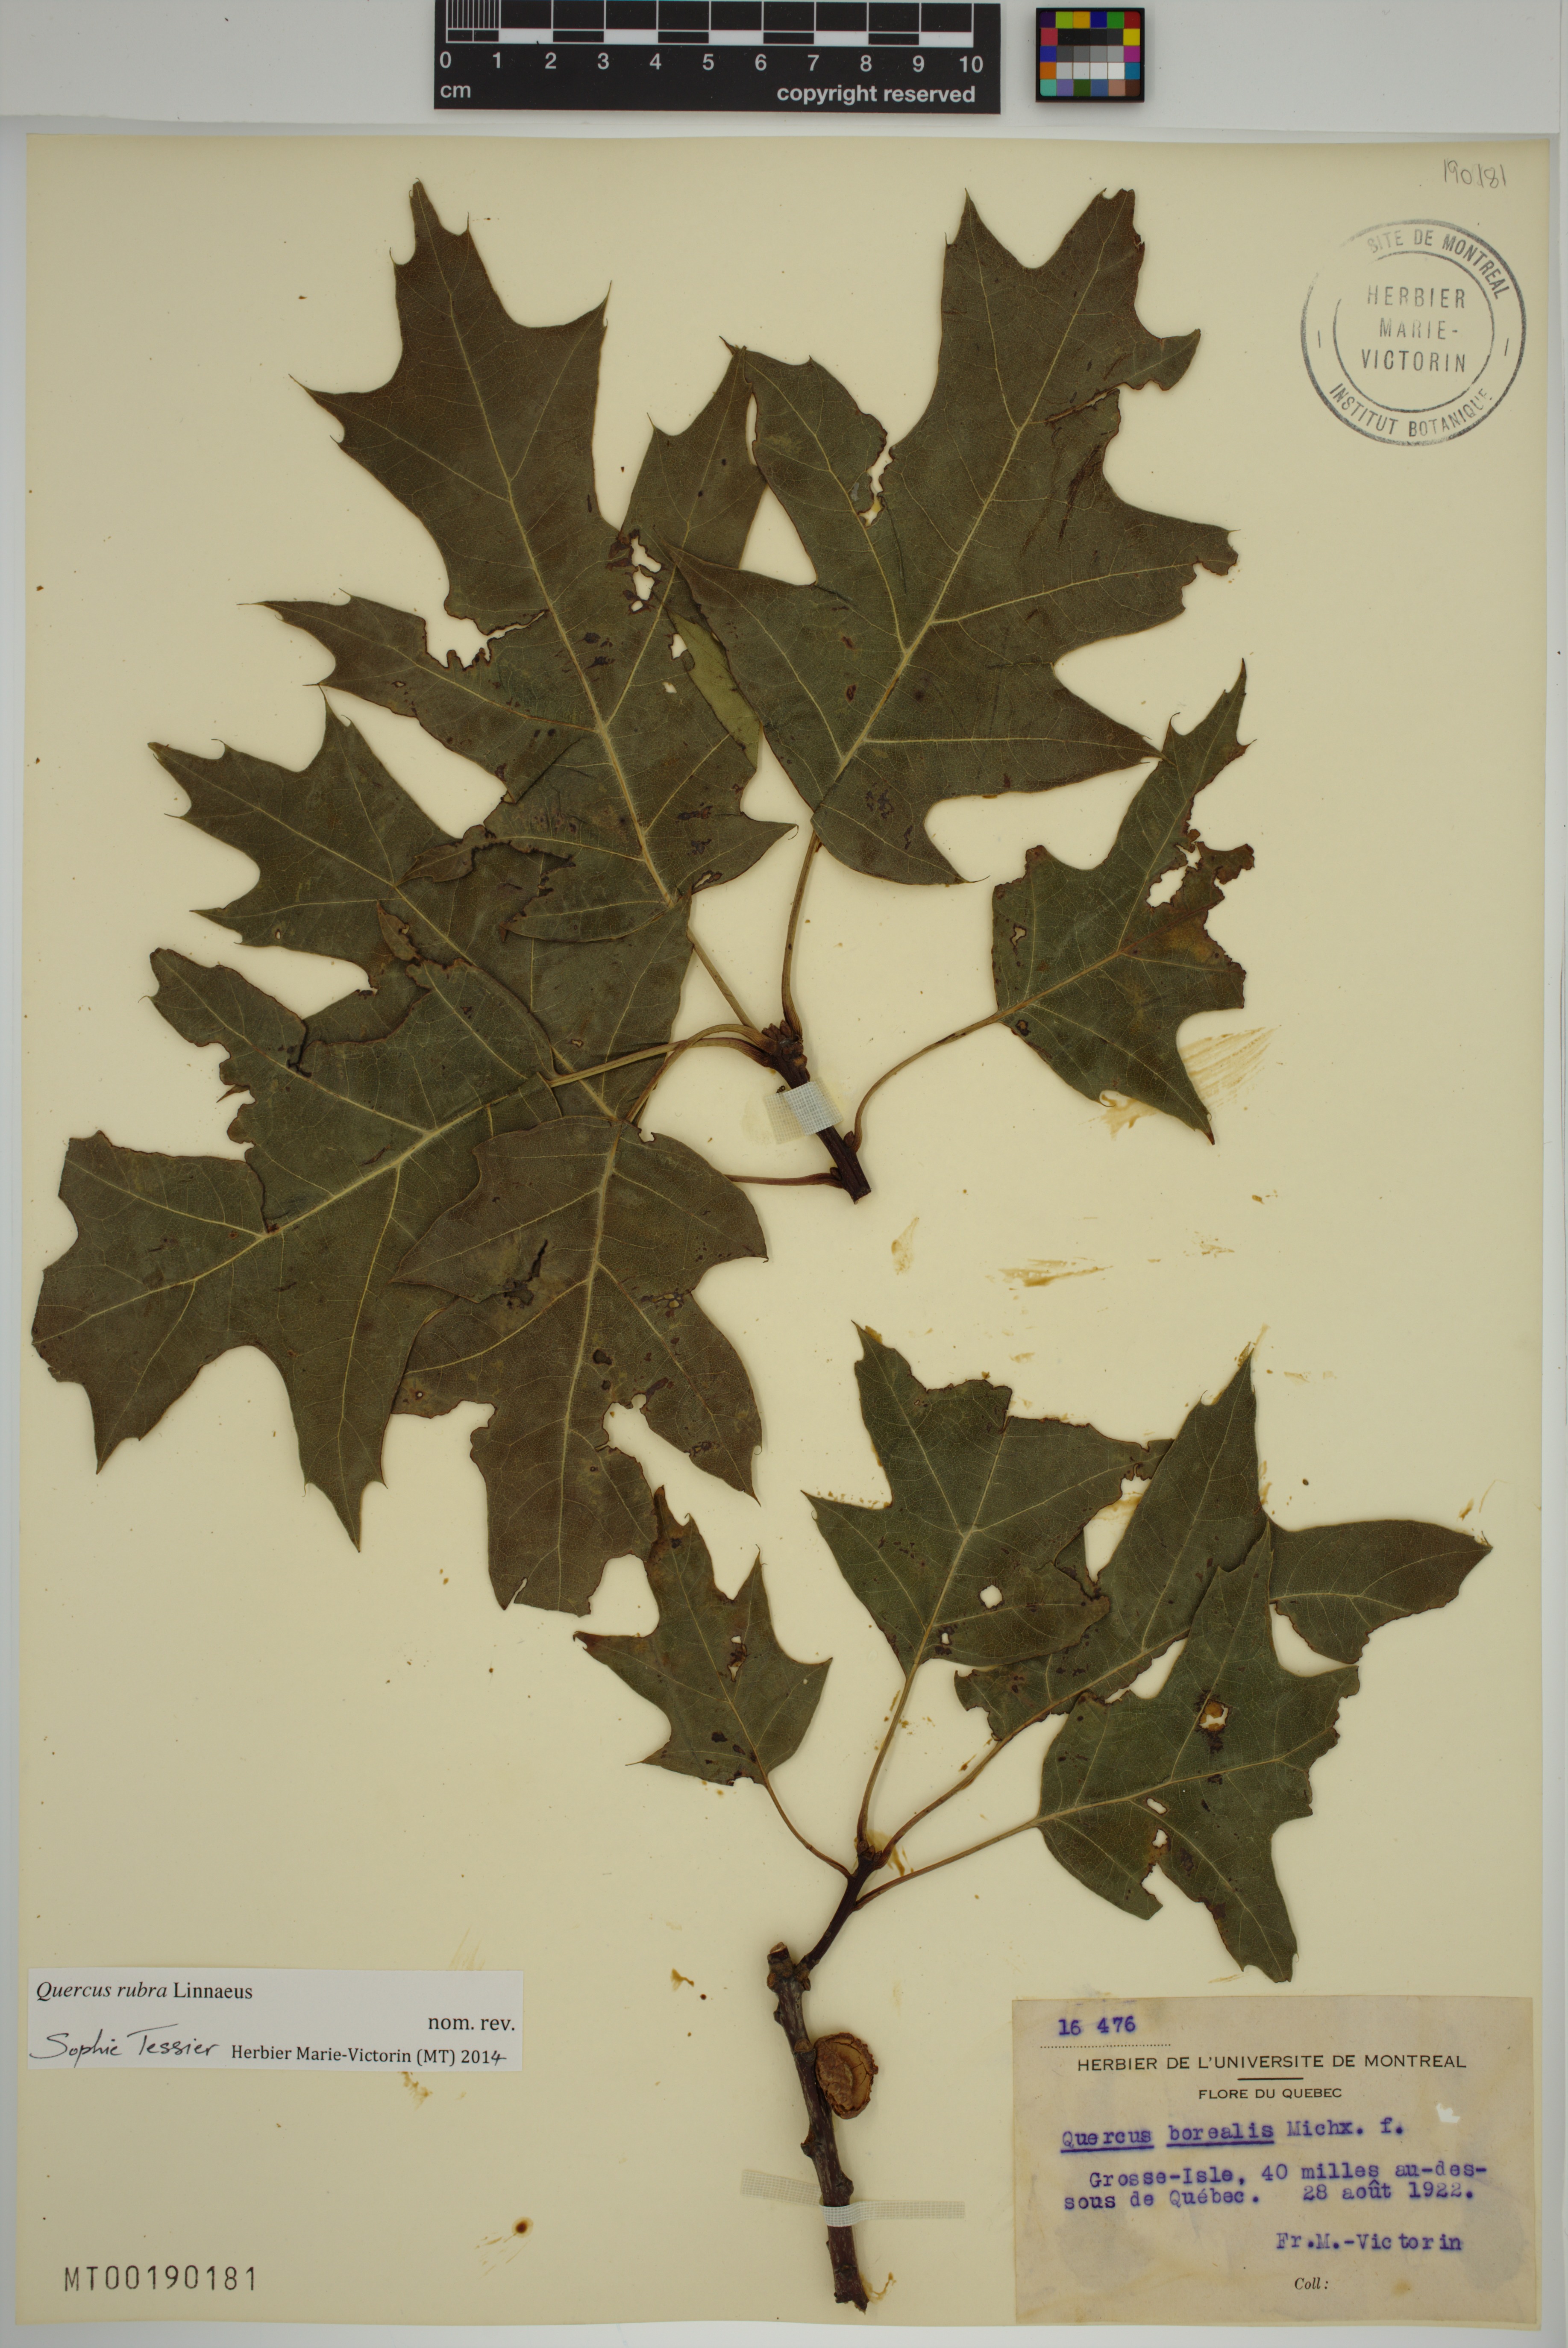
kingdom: Plantae
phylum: Tracheophyta
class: Magnoliopsida
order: Fagales
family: Fagaceae
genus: Quercus
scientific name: Quercus rubra
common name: Red oak
